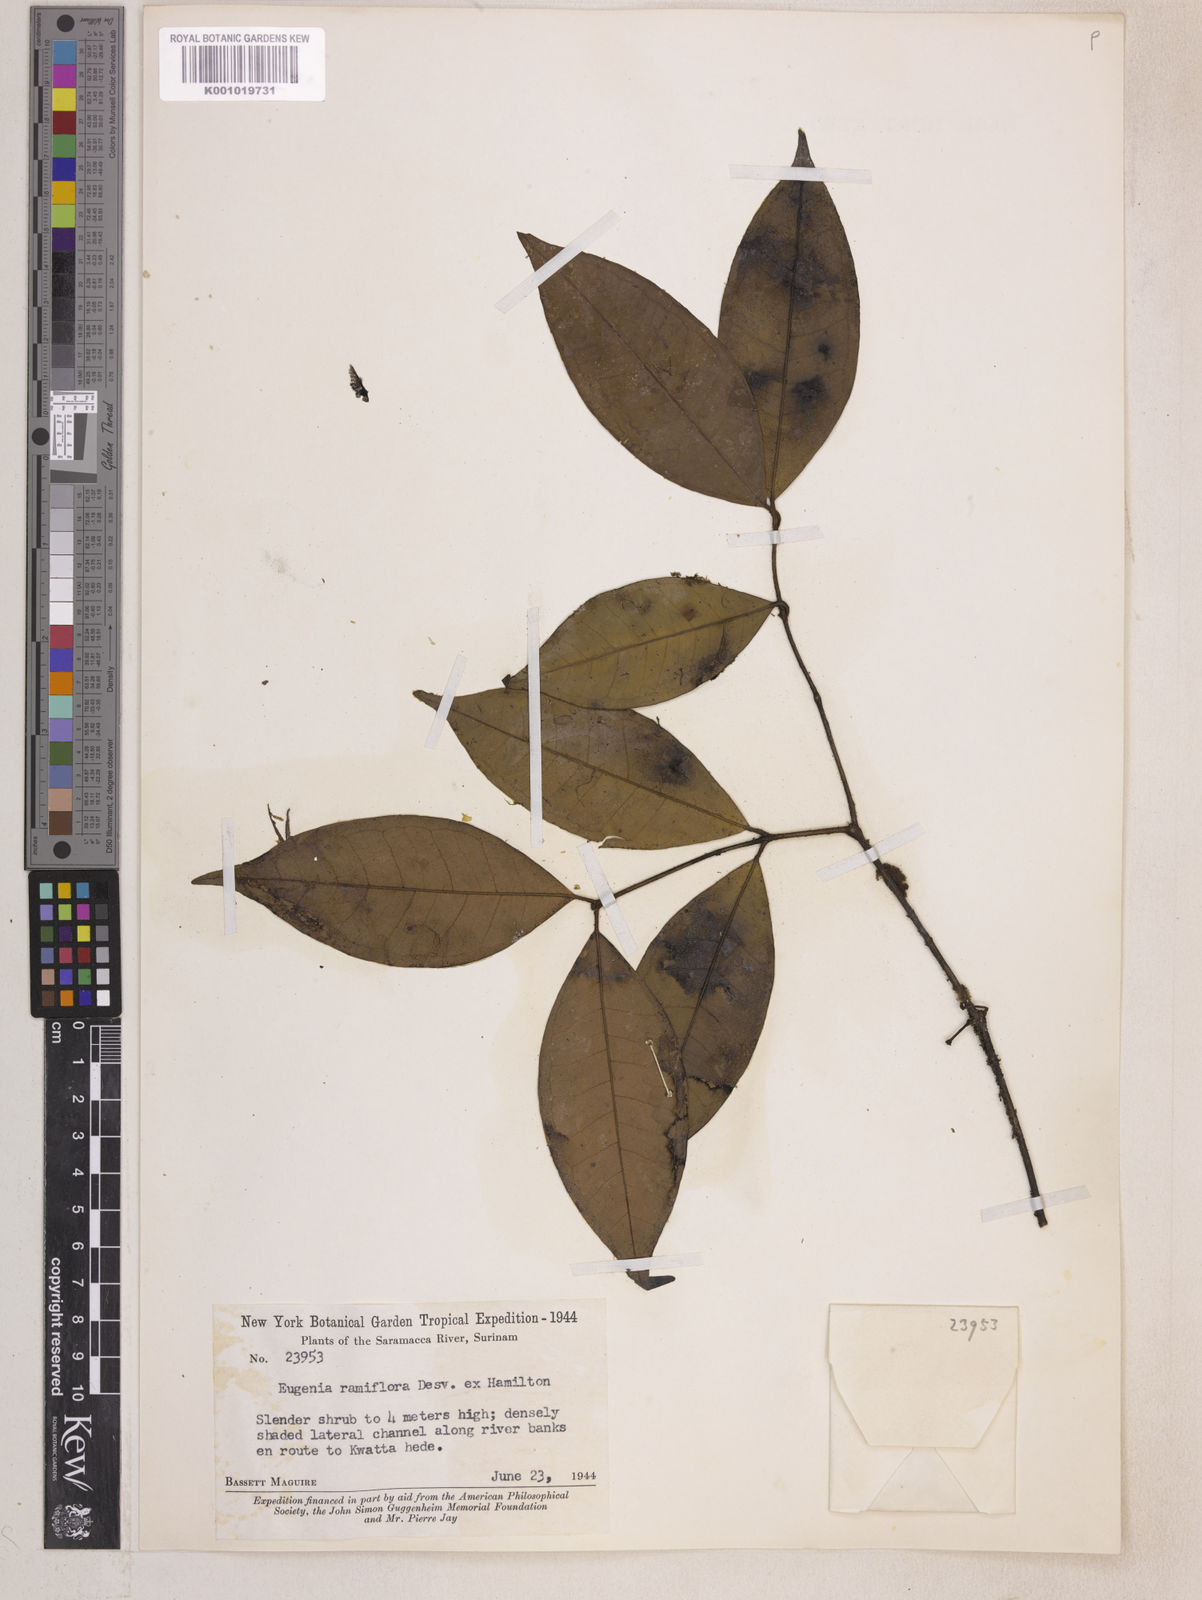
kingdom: Plantae
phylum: Tracheophyta
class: Magnoliopsida
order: Myrtales
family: Myrtaceae
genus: Eugenia
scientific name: Eugenia ramiflora
